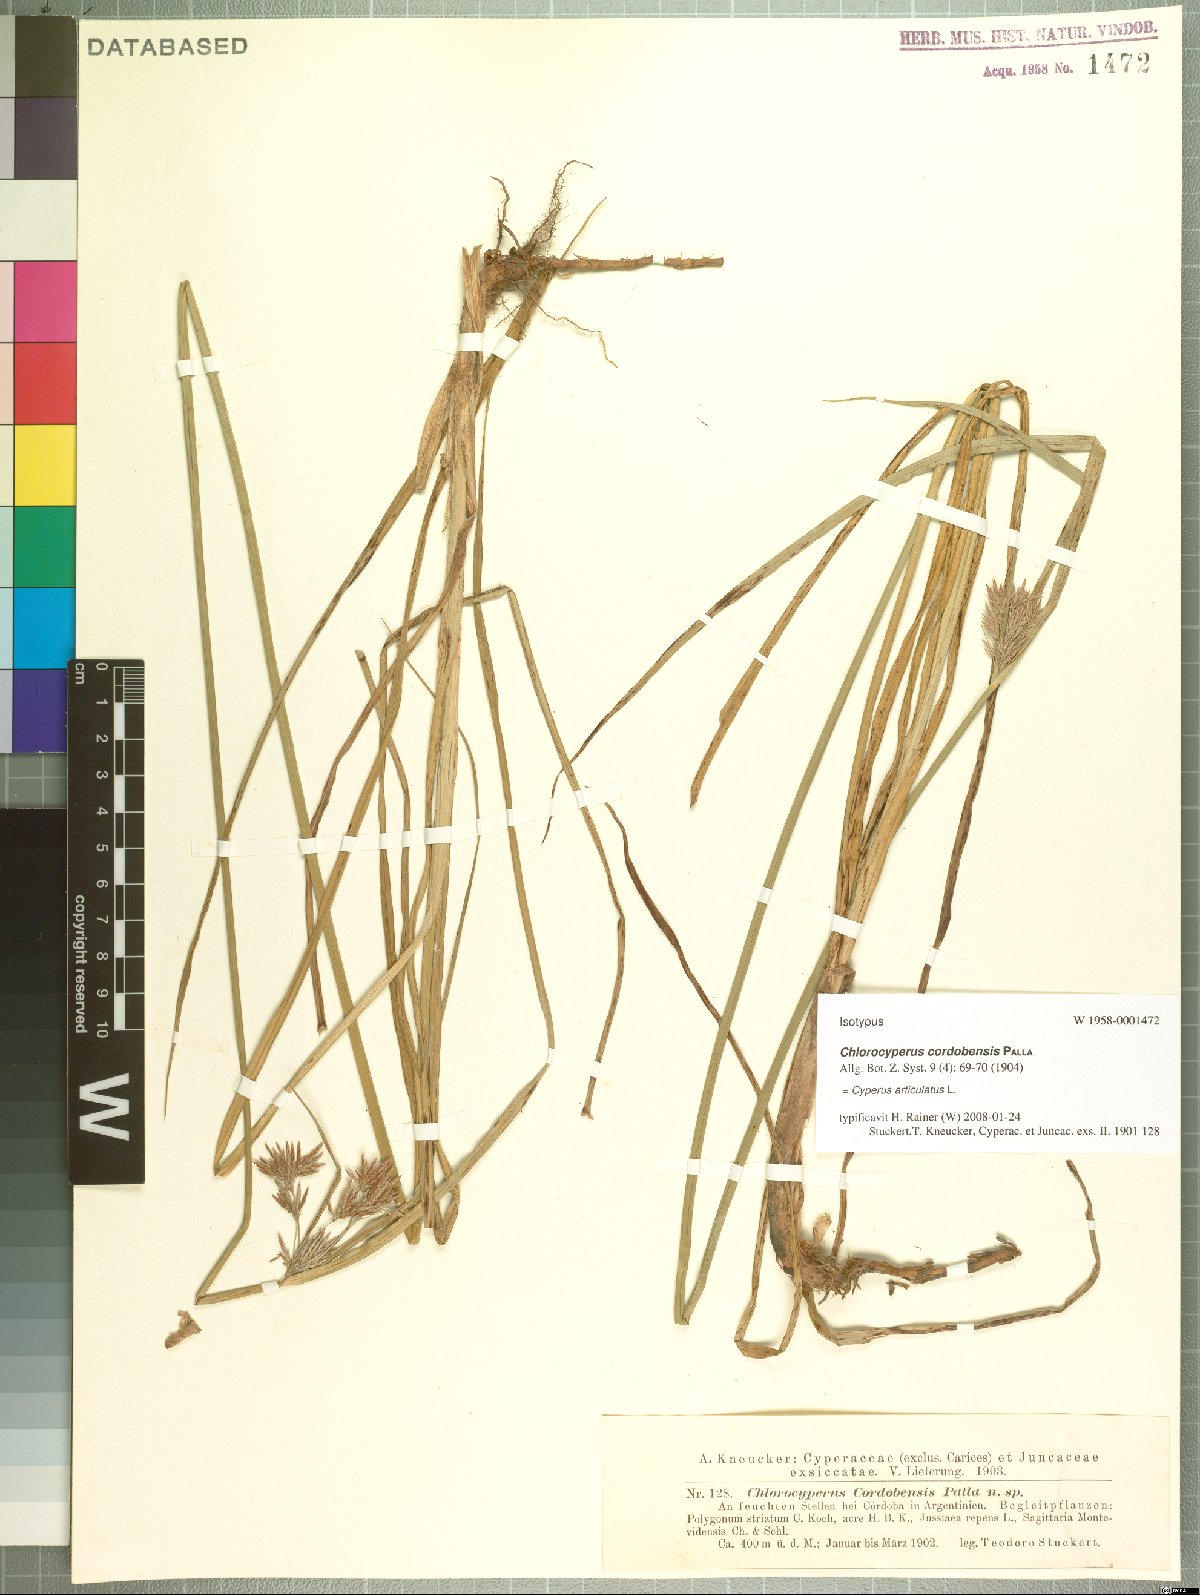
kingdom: Plantae
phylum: Tracheophyta
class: Liliopsida
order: Poales
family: Cyperaceae
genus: Cyperus
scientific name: Cyperus articulatus
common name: Jointed flatsedge
